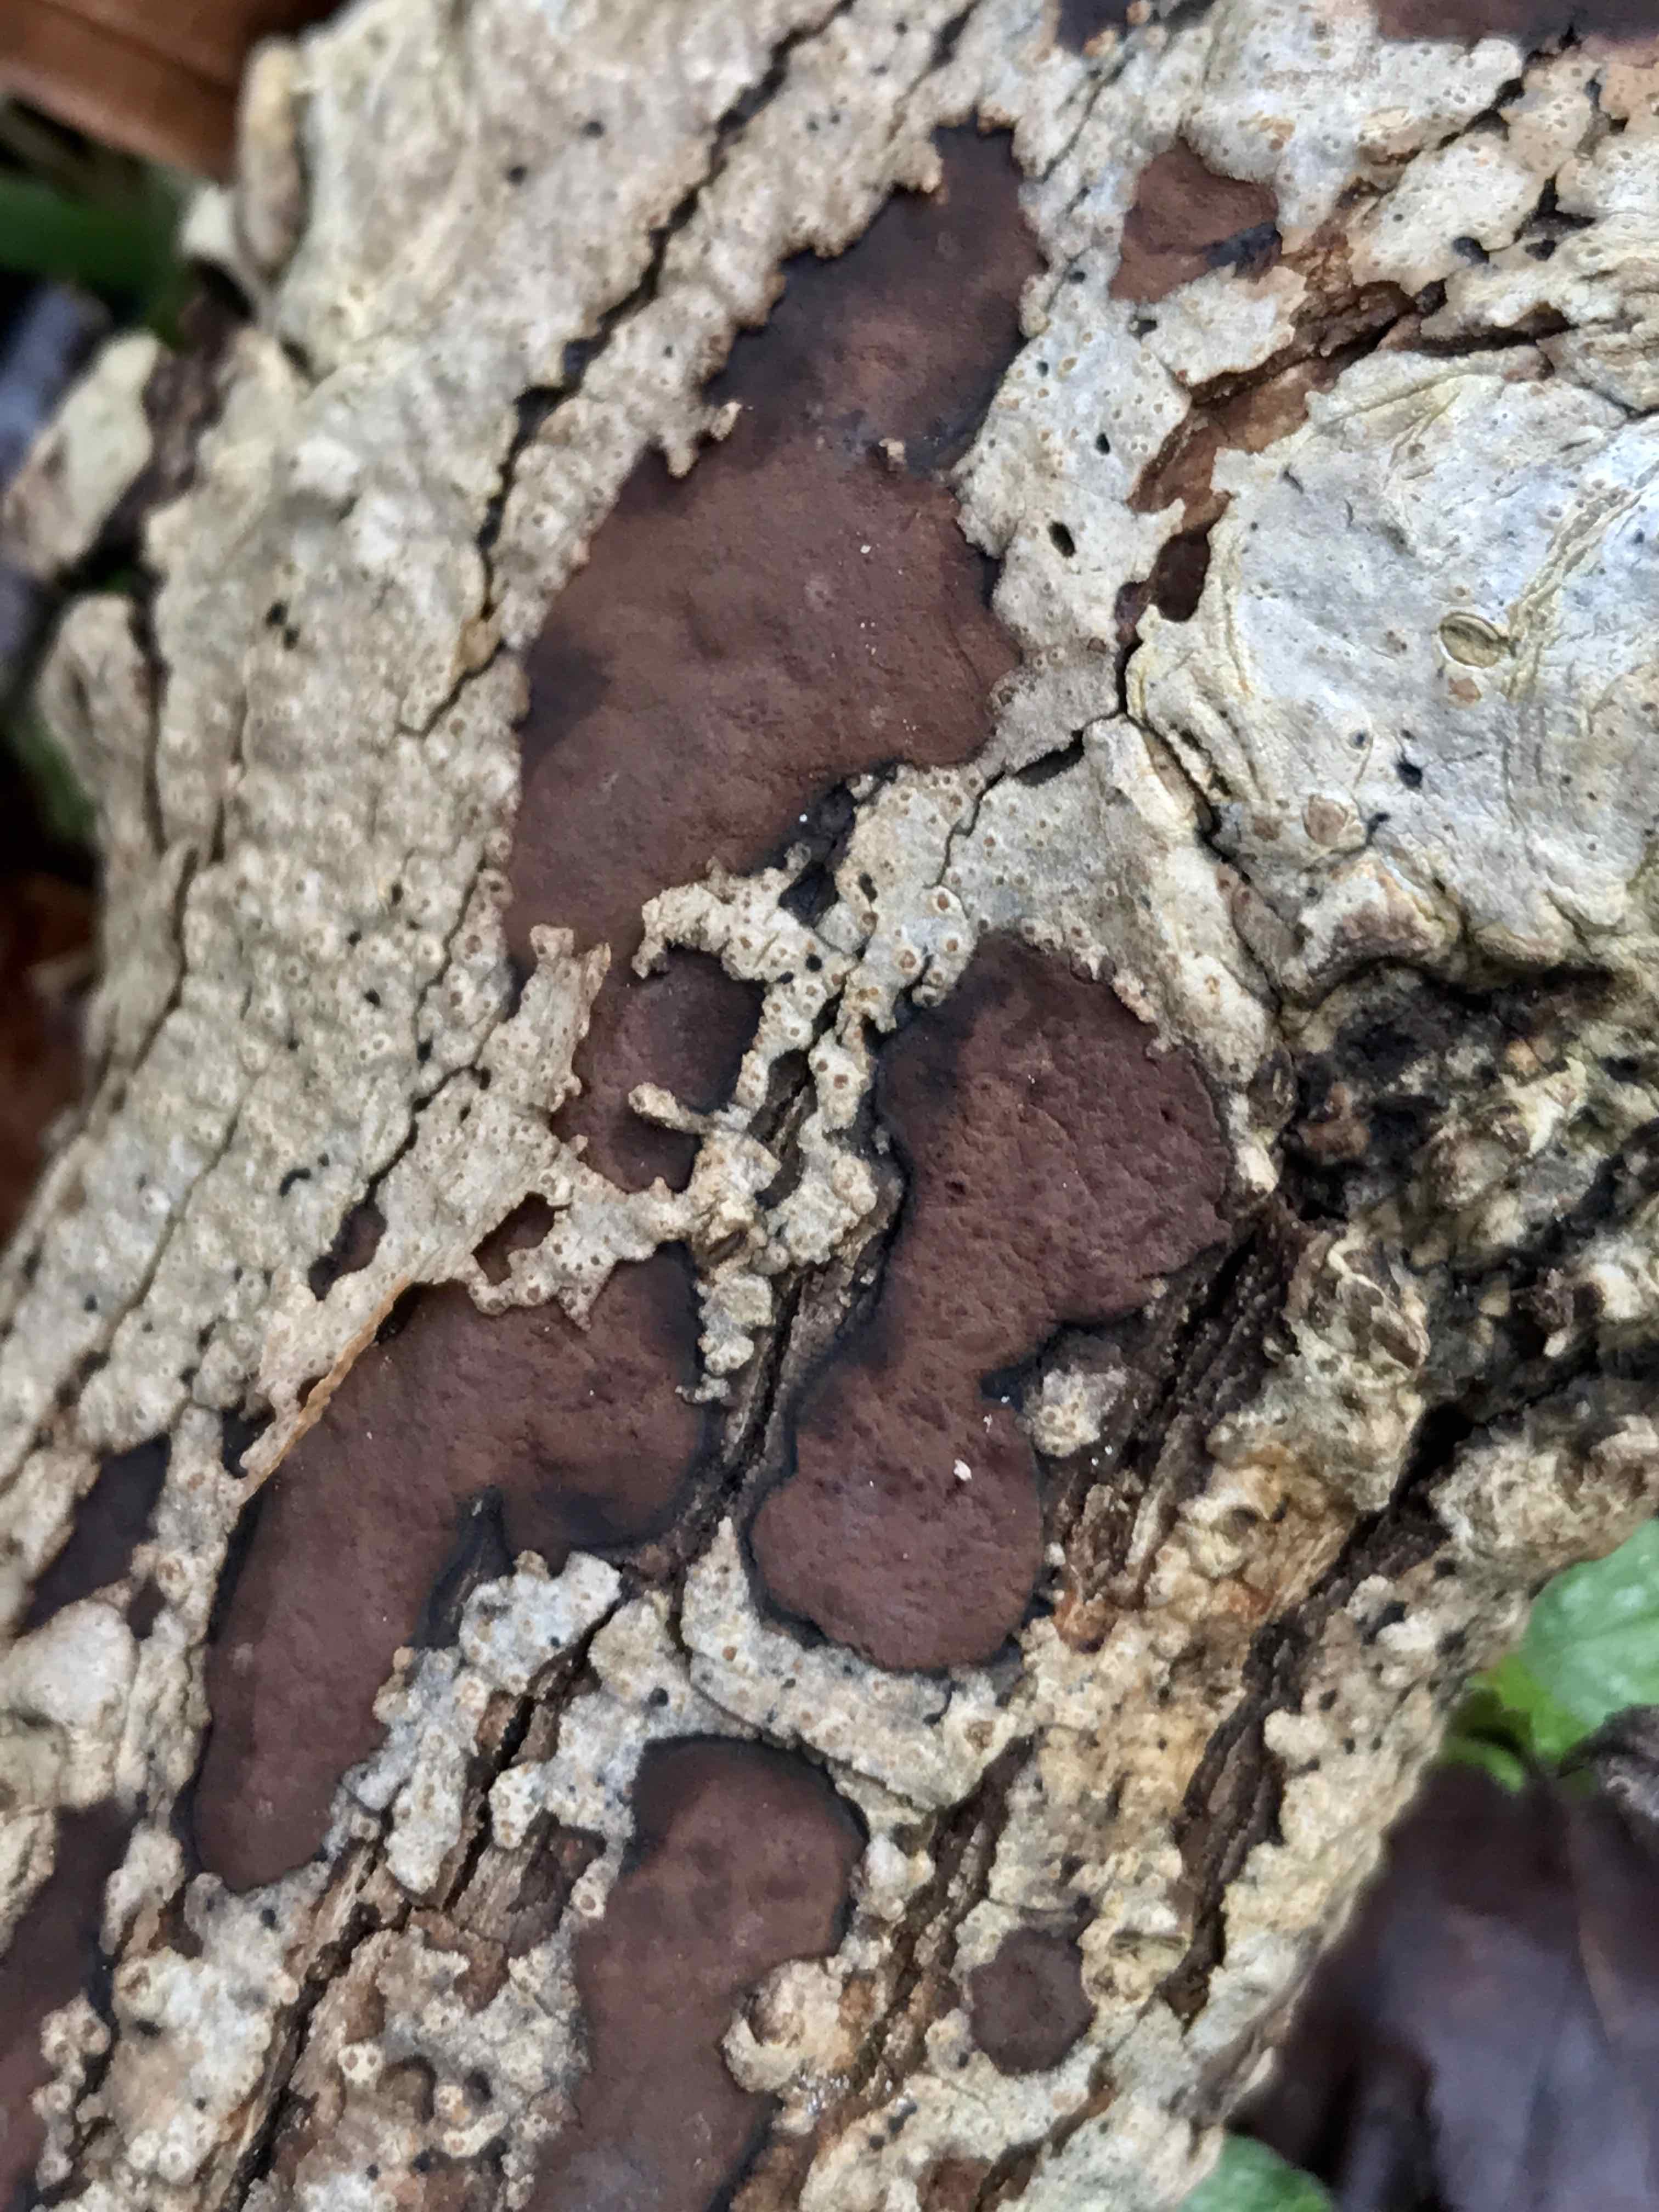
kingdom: Fungi
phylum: Ascomycota
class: Sordariomycetes
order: Xylariales
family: Hypoxylaceae
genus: Hypoxylon
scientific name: Hypoxylon petriniae
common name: nedsænket kulbær
